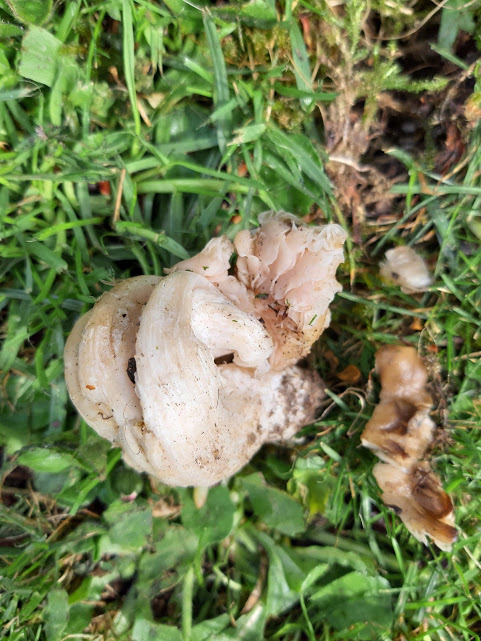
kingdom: Fungi
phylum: Basidiomycota
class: Agaricomycetes
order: Agaricales
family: Entolomataceae
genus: Entoloma
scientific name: Entoloma
